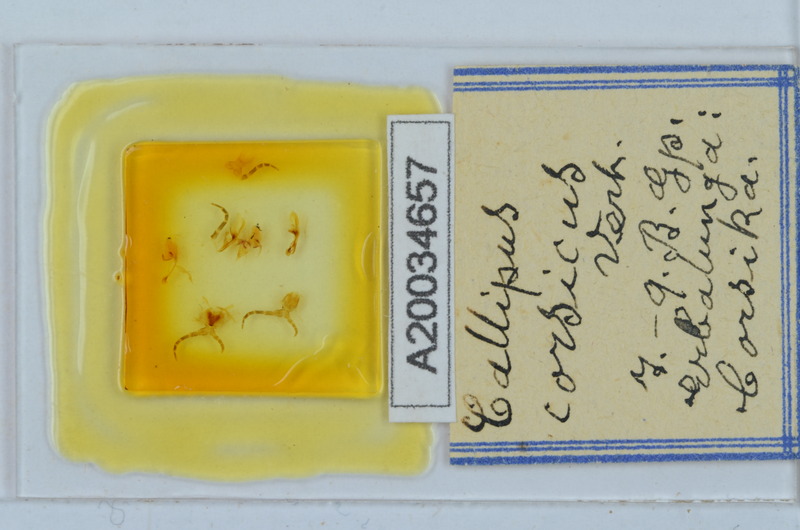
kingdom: Animalia
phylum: Arthropoda
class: Diplopoda
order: Callipodida
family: Callipodidae
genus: Callipus
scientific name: Callipus corsicus
